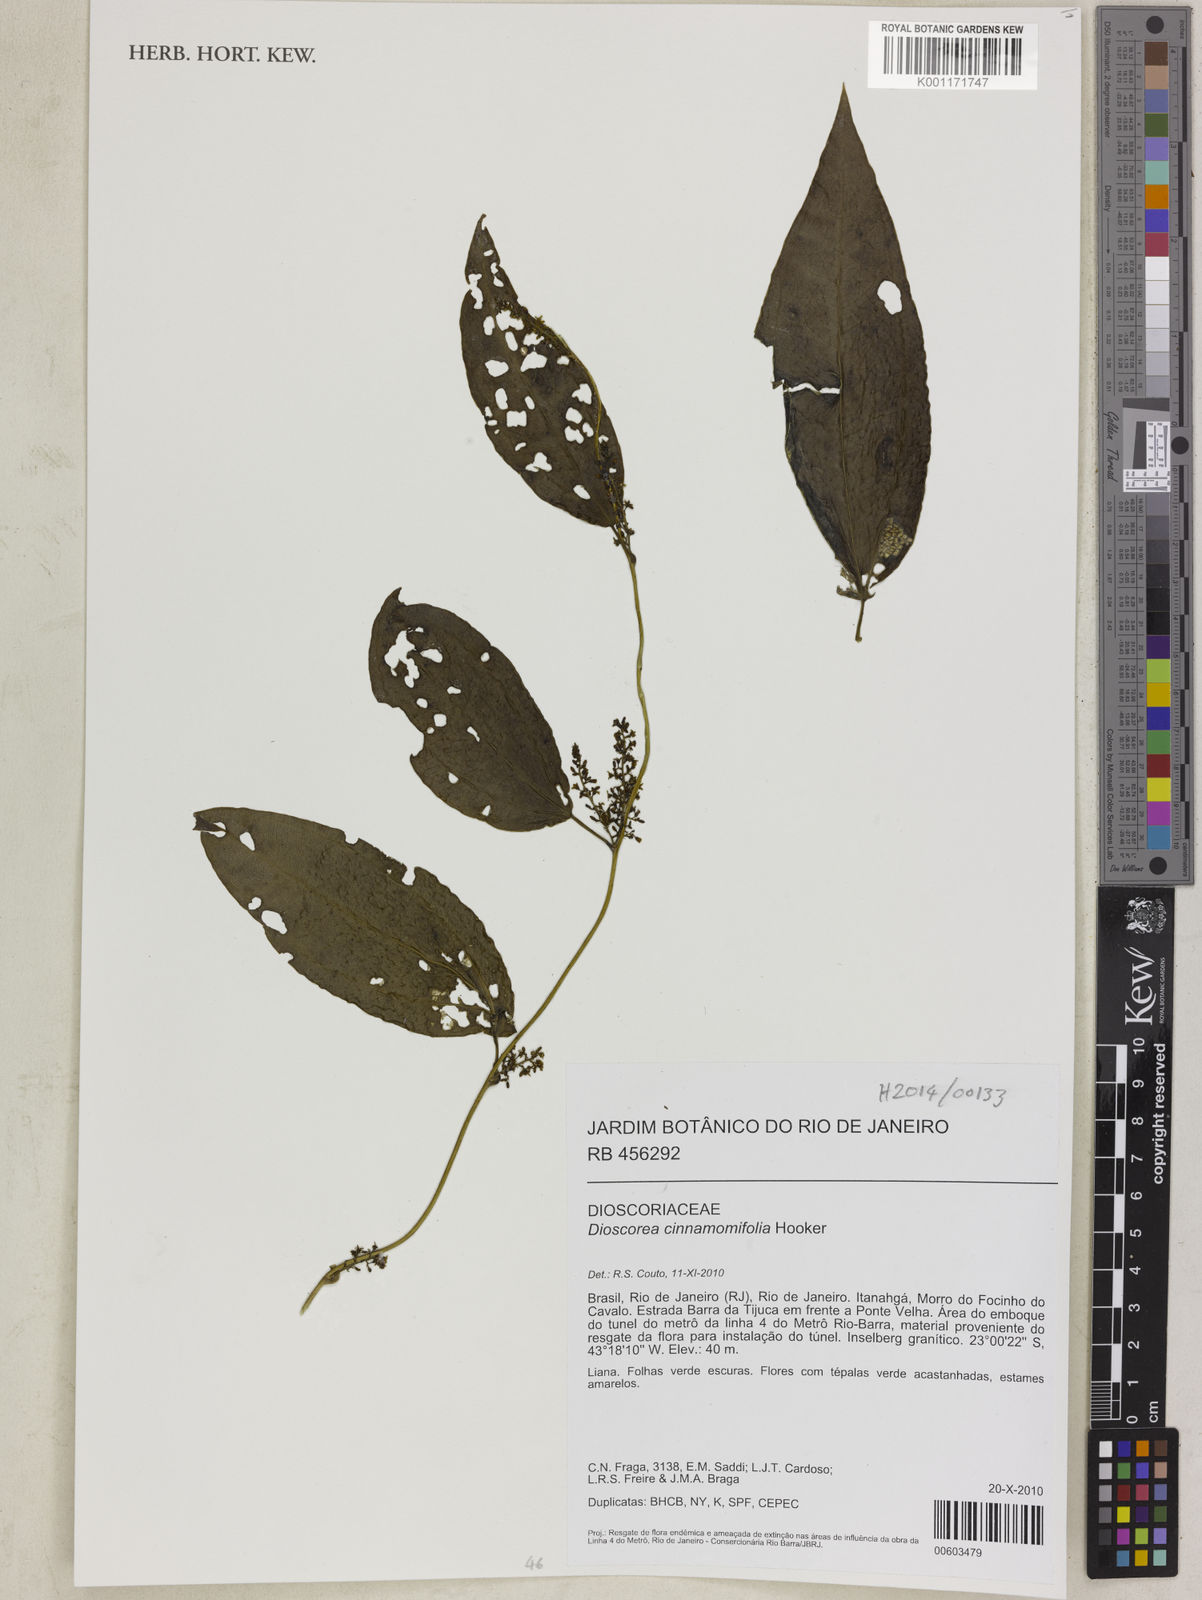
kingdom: Plantae
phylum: Tracheophyta
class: Liliopsida
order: Dioscoreales
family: Dioscoreaceae
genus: Dioscorea
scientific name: Dioscorea cinnamomifolia
